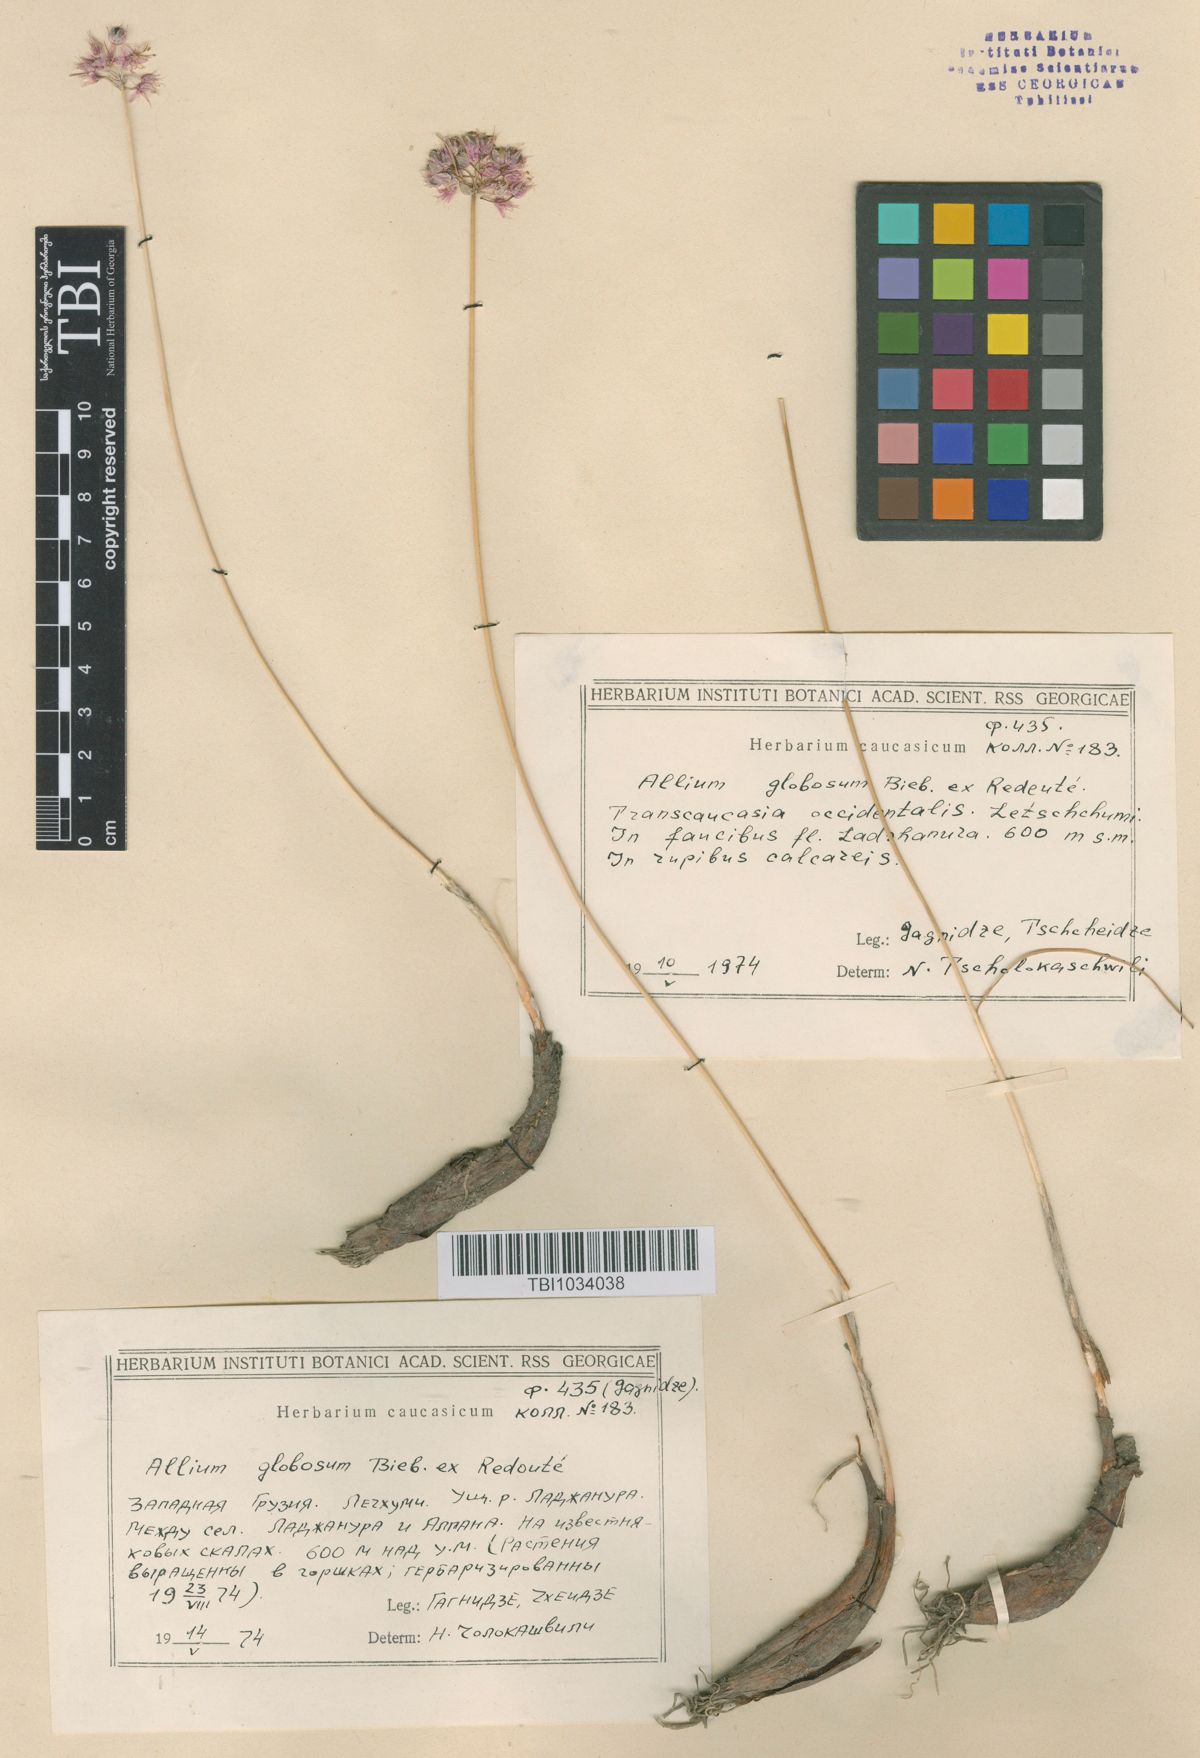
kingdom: Plantae
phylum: Tracheophyta
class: Liliopsida
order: Asparagales
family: Amaryllidaceae
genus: Allium
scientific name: Allium saxatile
